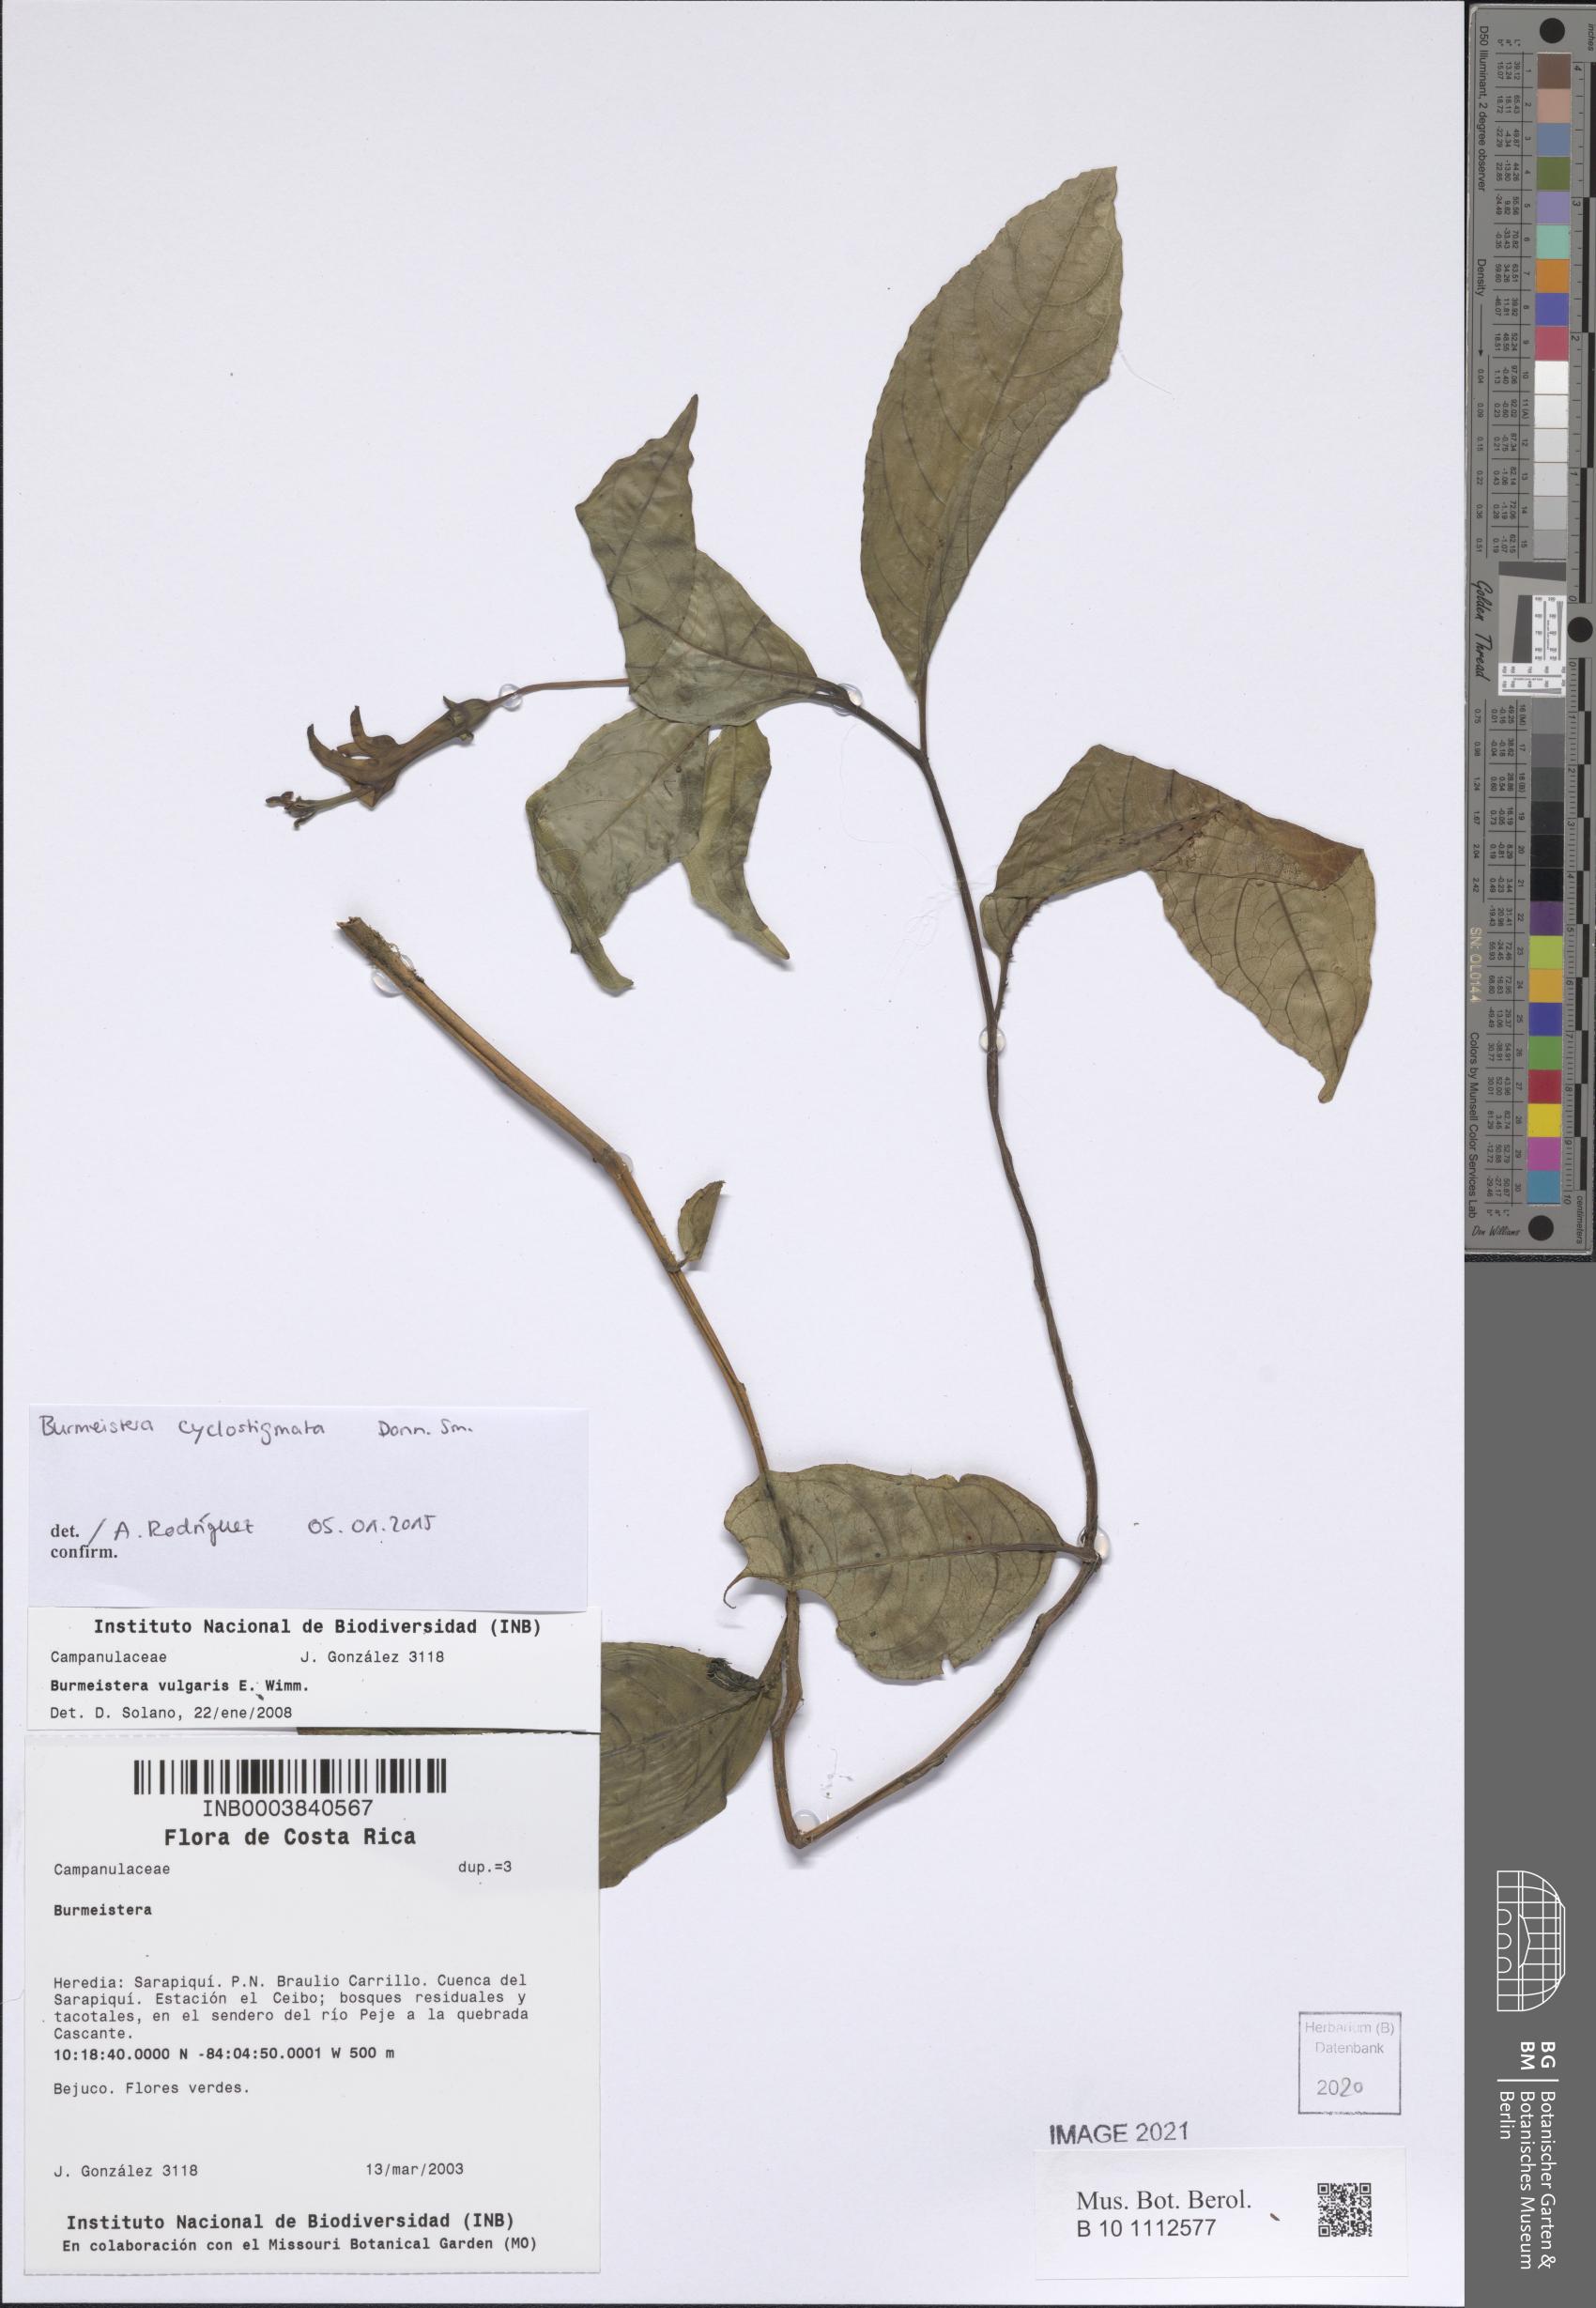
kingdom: Plantae
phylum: Tracheophyta
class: Magnoliopsida
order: Asterales
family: Campanulaceae
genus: Burmeistera
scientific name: Burmeistera cyclostigmata
